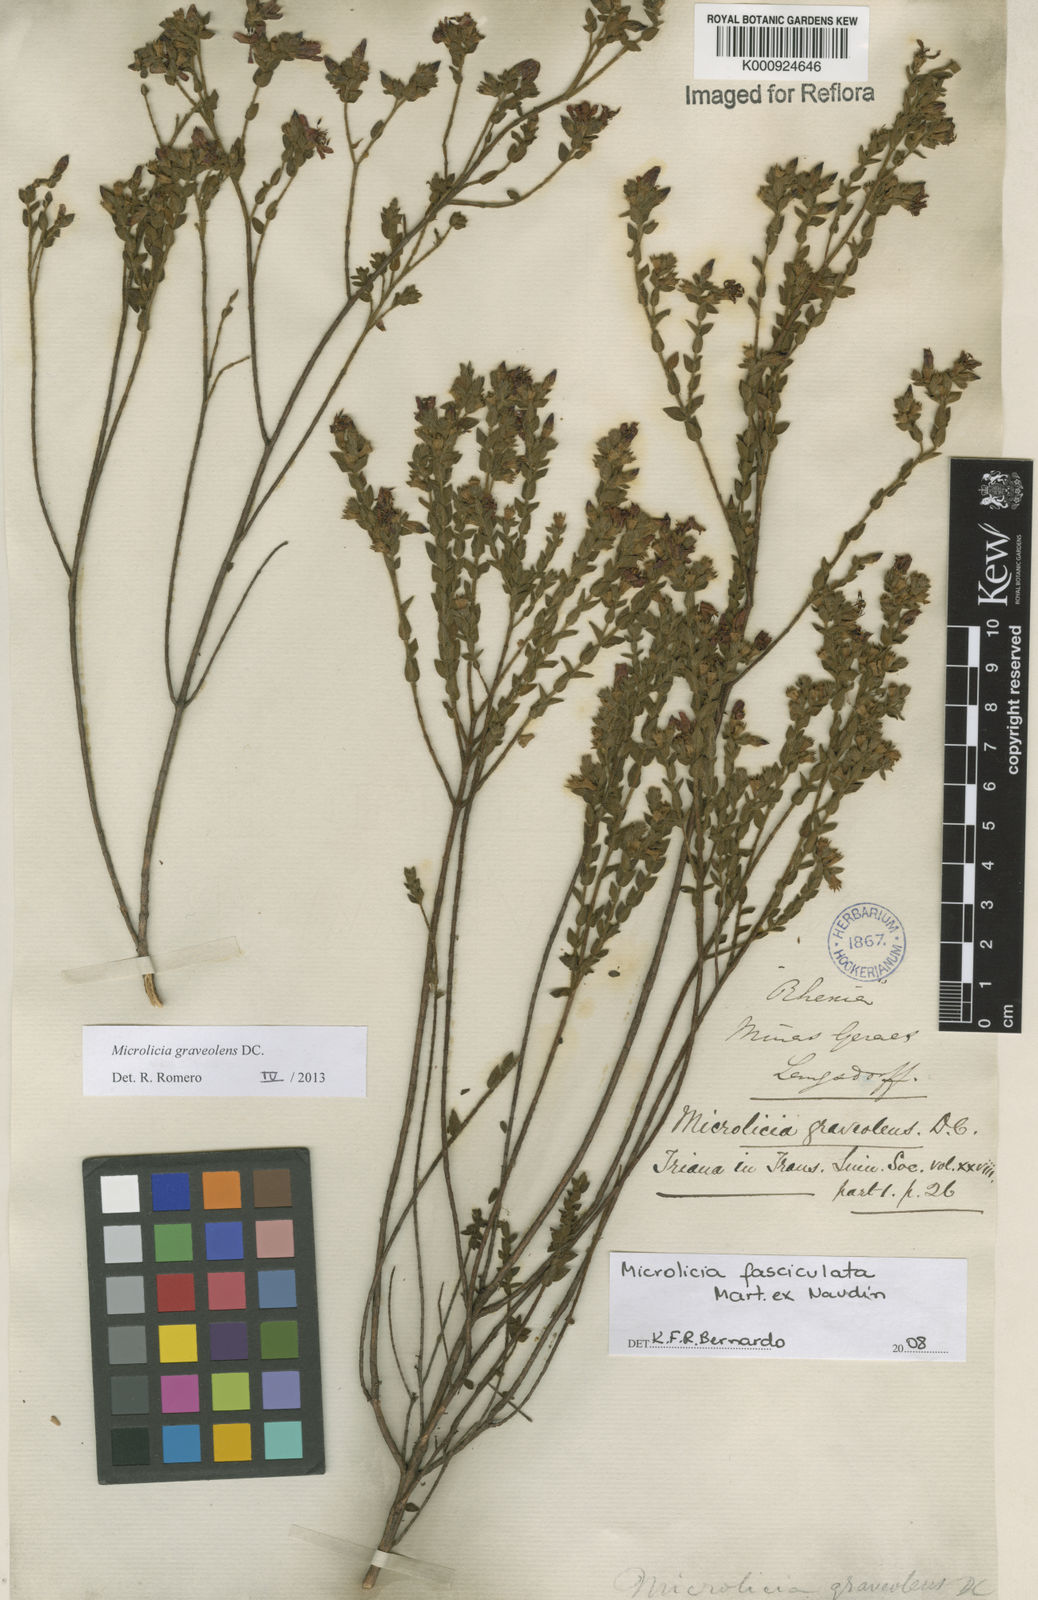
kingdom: Plantae
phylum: Tracheophyta
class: Magnoliopsida
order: Myrtales
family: Melastomataceae
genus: Microlicia
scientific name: Microlicia graveolens
